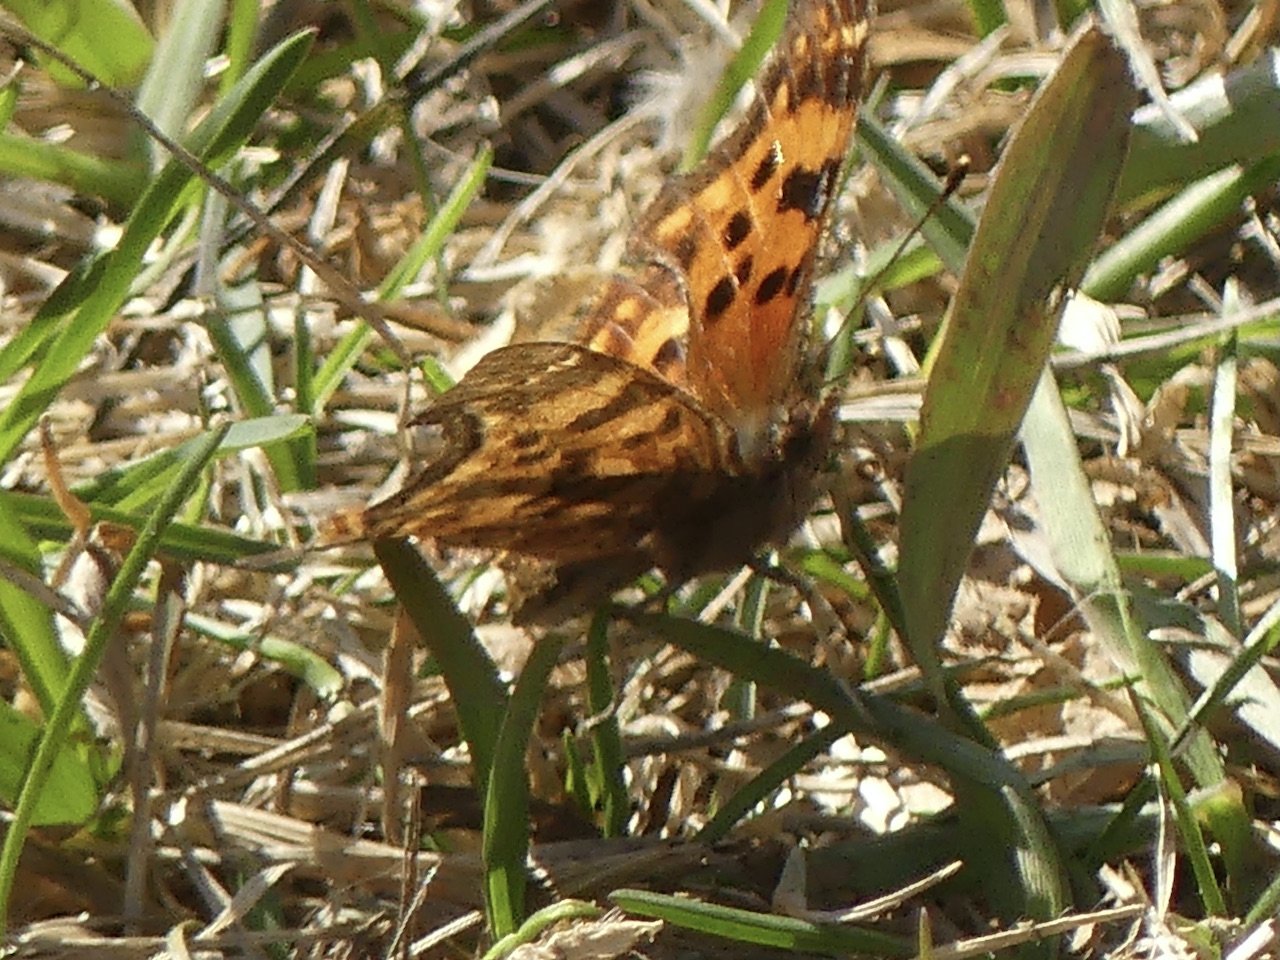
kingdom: Animalia
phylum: Arthropoda
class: Insecta
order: Lepidoptera
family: Nymphalidae
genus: Polygonia
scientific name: Polygonia satyrus
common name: Satyr Comma
